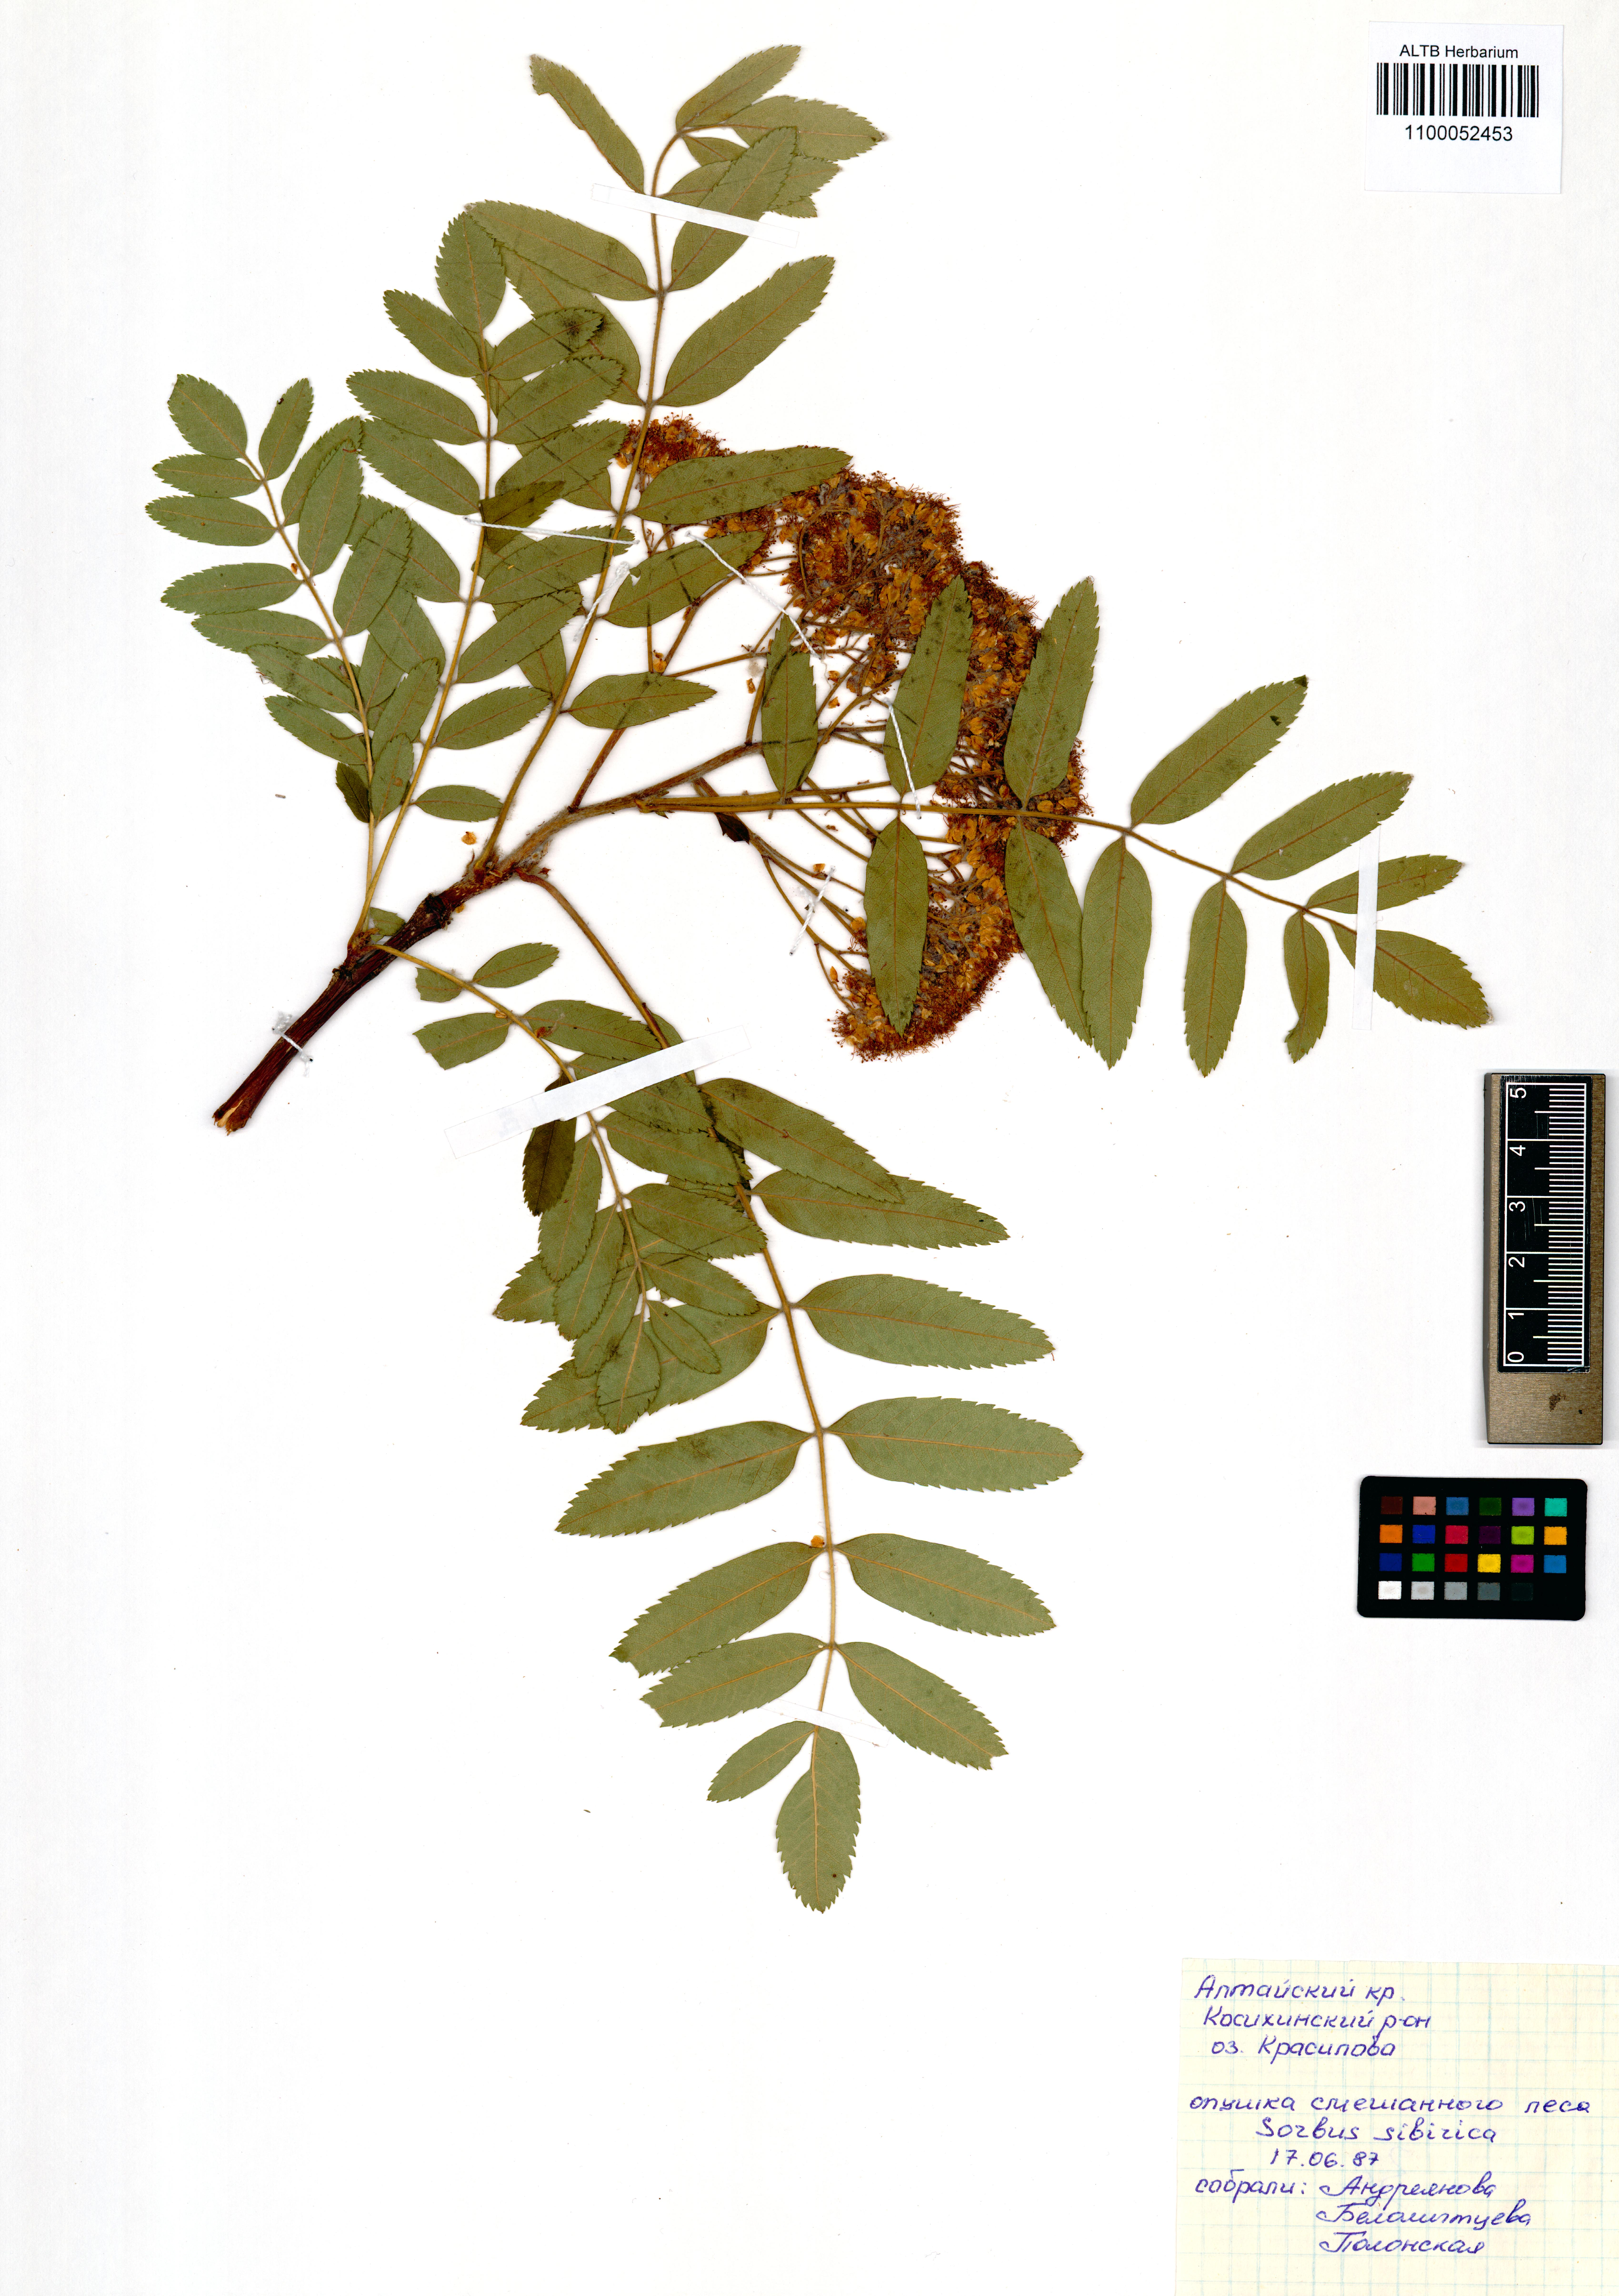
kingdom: Plantae
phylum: Tracheophyta
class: Magnoliopsida
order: Rosales
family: Rosaceae
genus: Sorbus
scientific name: Sorbus aucuparia
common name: Rowan
